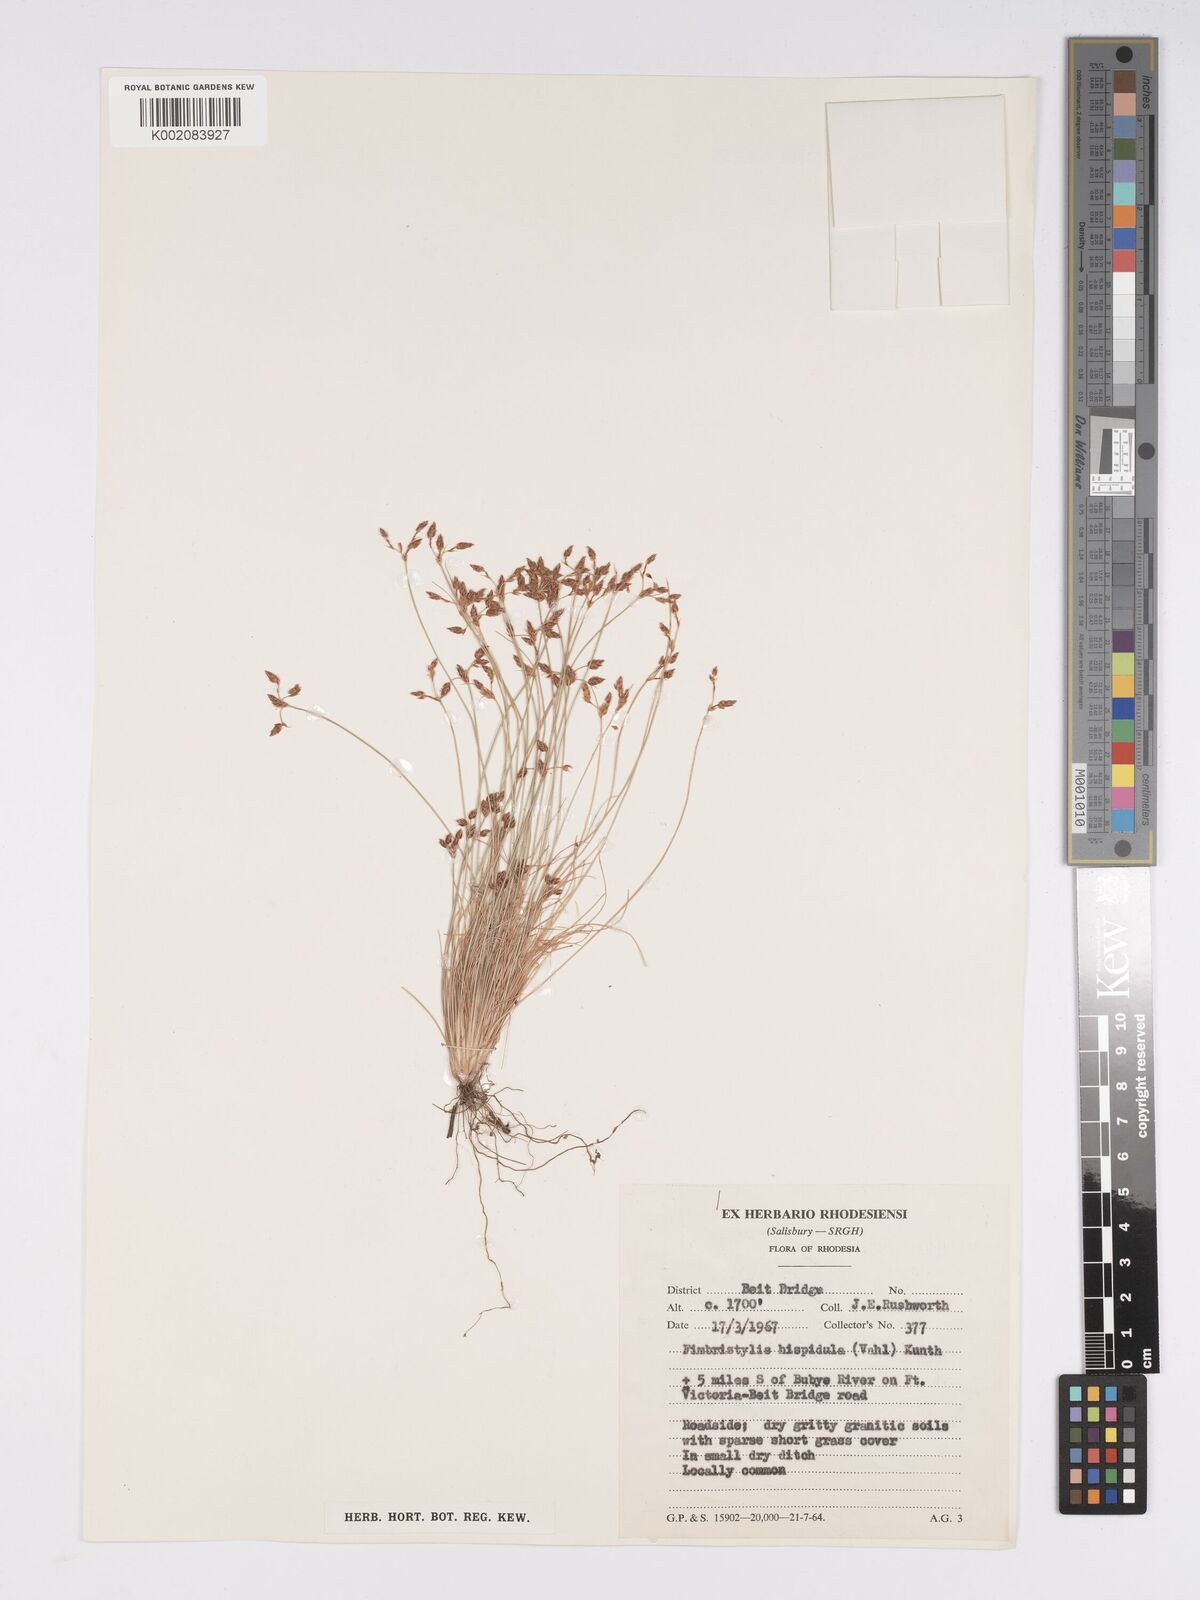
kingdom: Plantae
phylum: Tracheophyta
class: Liliopsida
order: Poales
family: Cyperaceae
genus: Bulbostylis
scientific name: Bulbostylis hispidula
